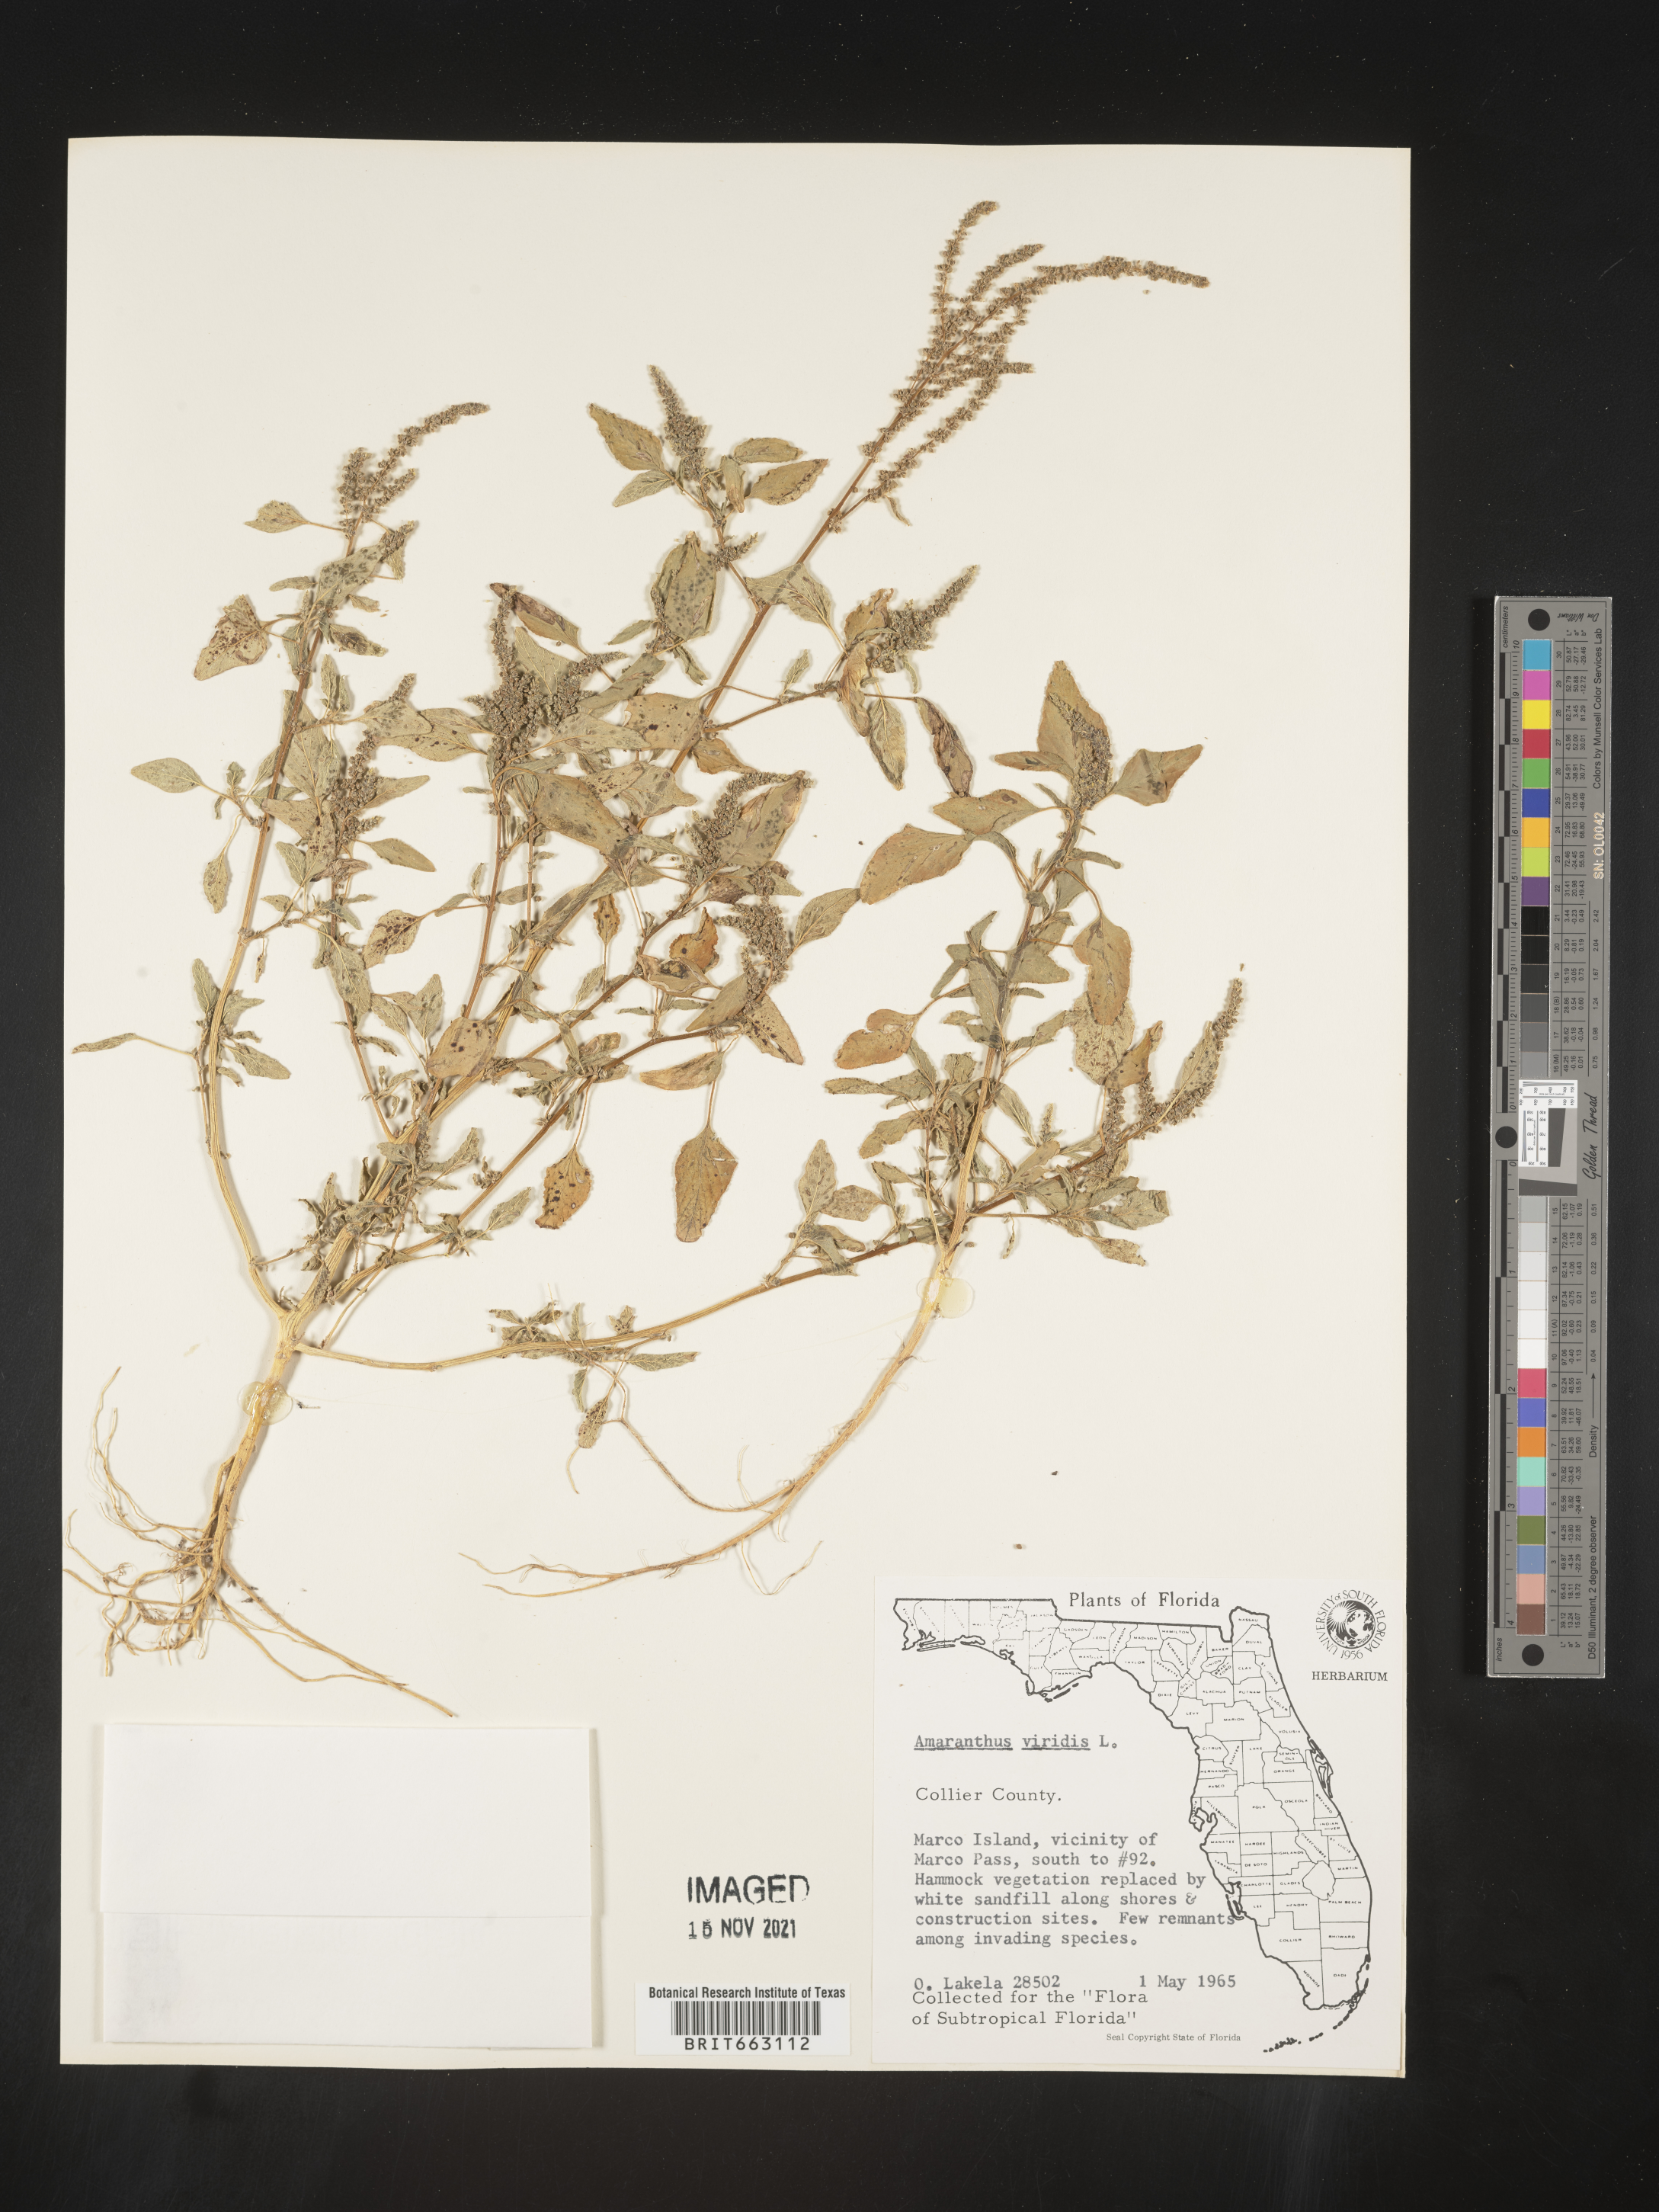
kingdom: Plantae
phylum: Tracheophyta
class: Magnoliopsida
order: Caryophyllales
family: Amaranthaceae
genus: Amaranthus
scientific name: Amaranthus viridis
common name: Slender amaranth
